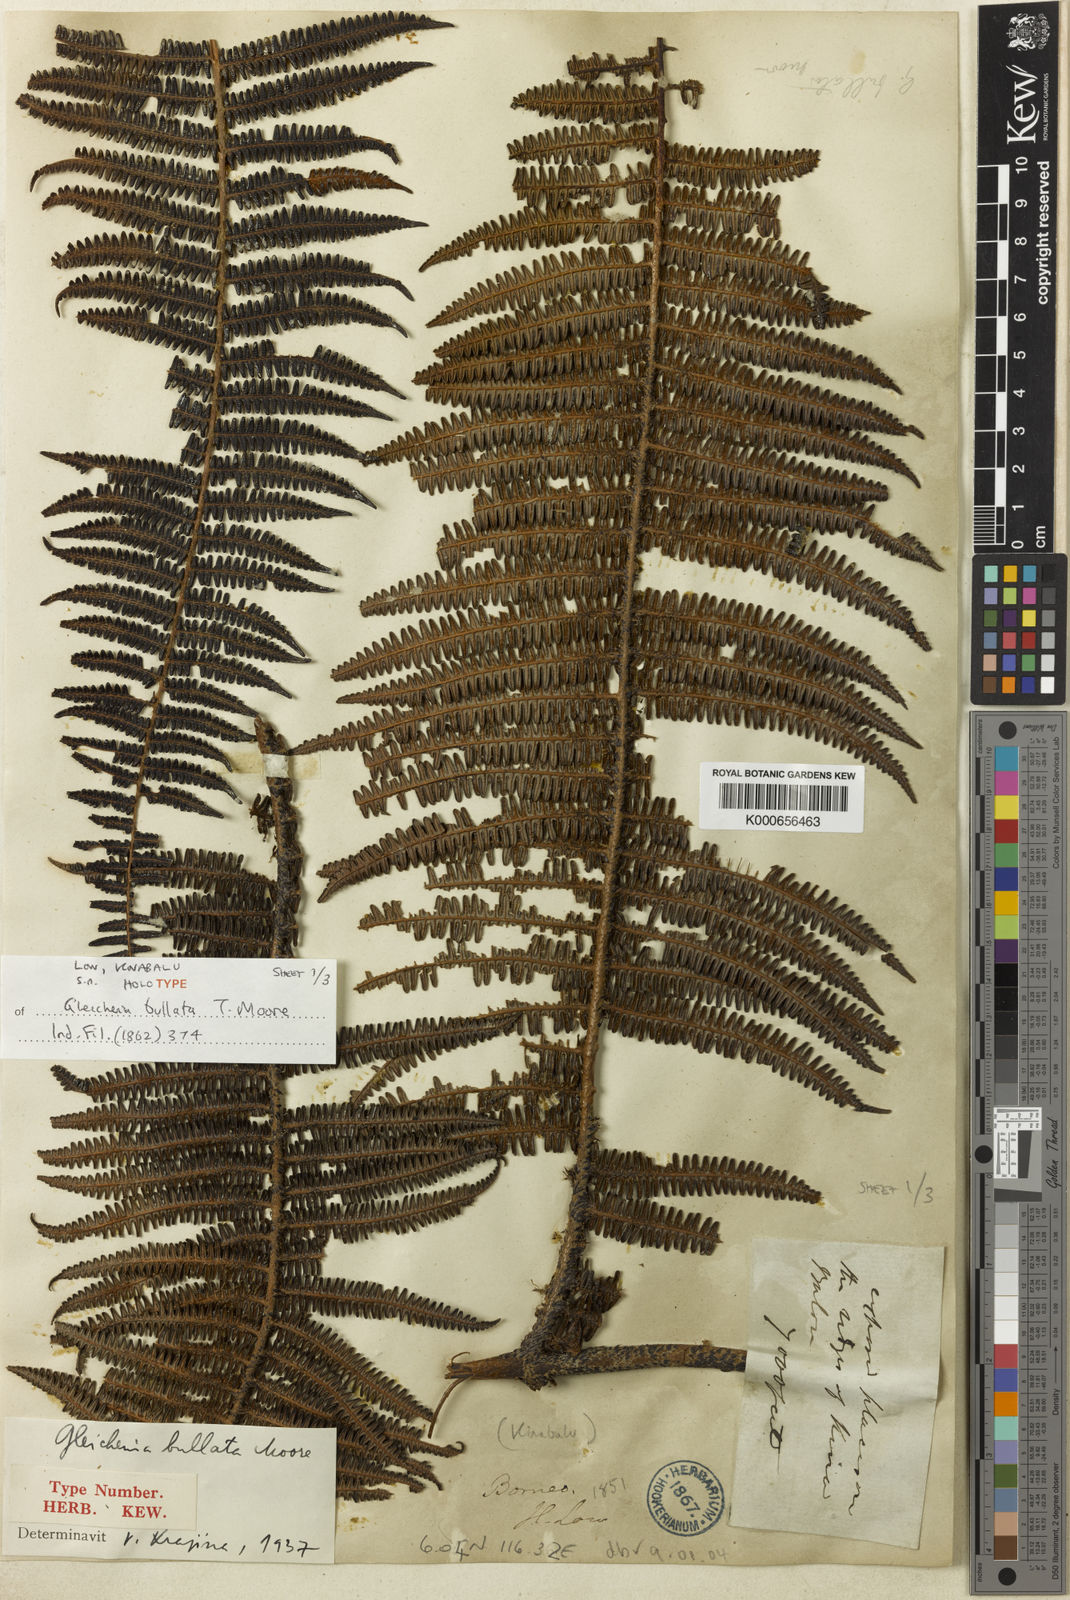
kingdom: Plantae
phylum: Tracheophyta
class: Polypodiopsida
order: Gleicheniales
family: Gleicheniaceae
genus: Diplopterygium
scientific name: Diplopterygium bullatum
